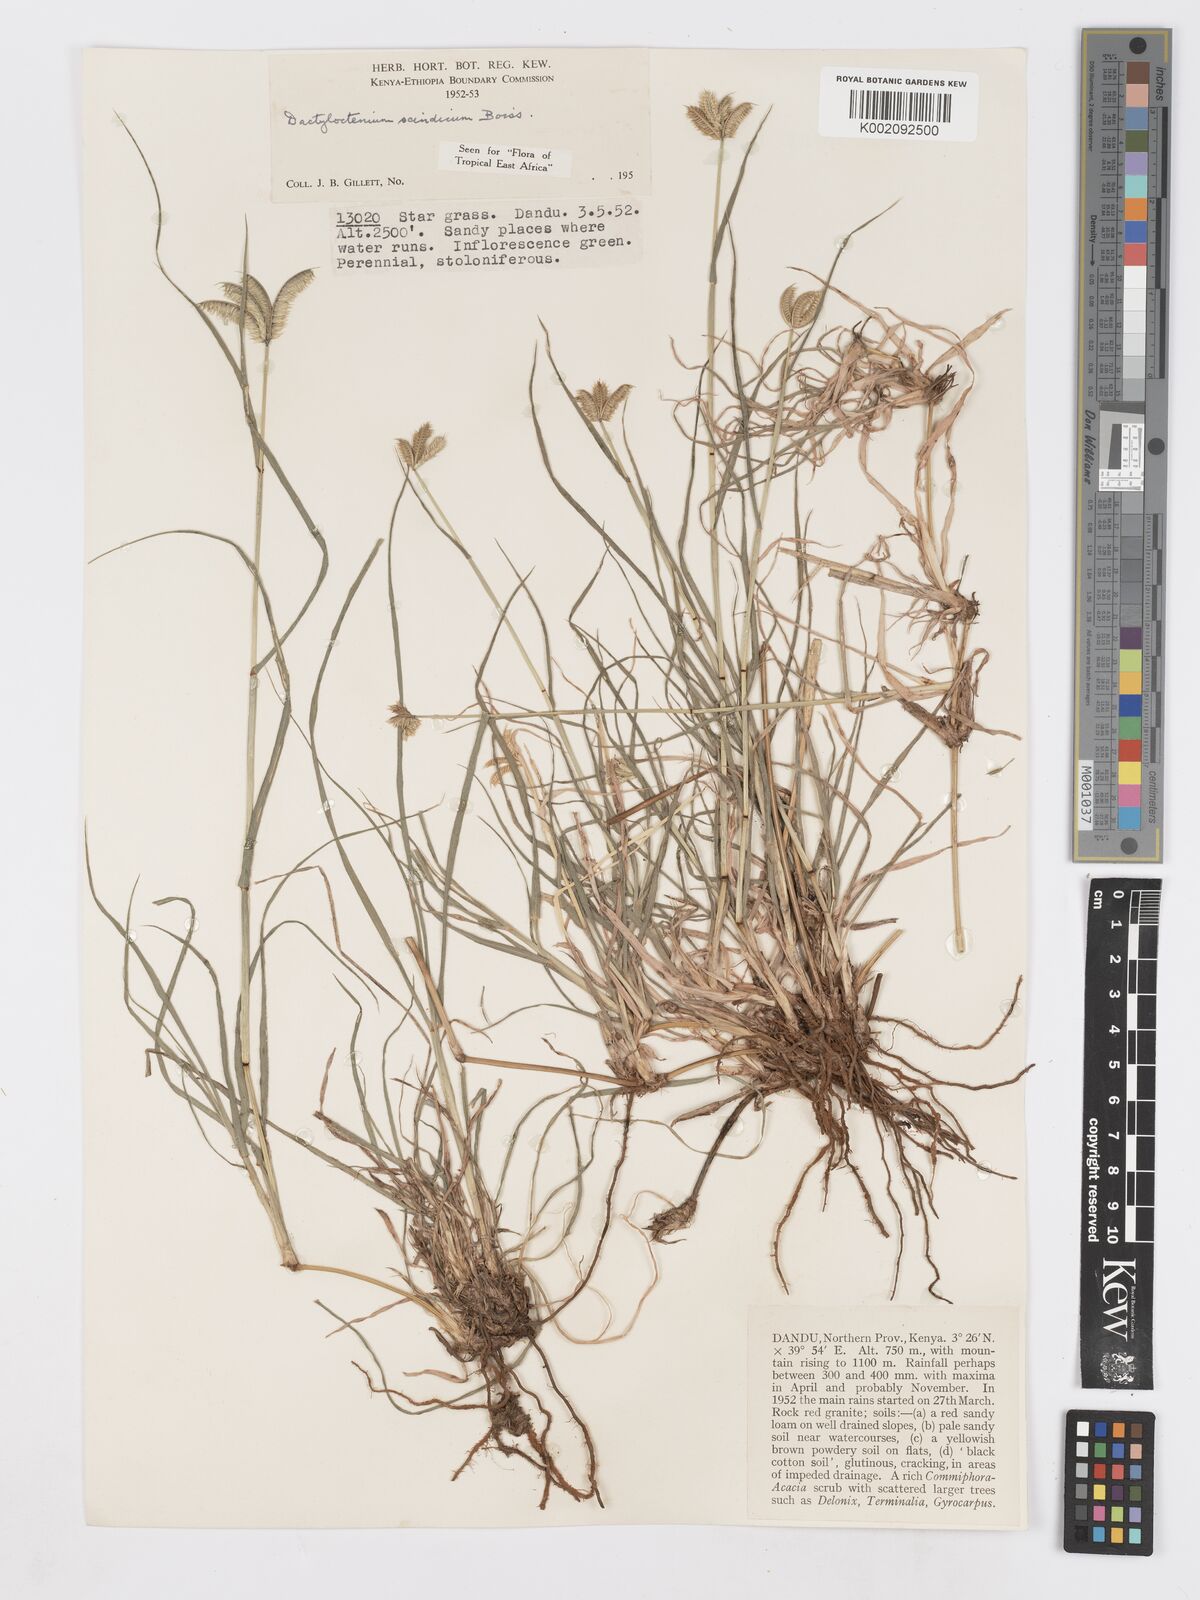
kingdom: Plantae
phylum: Tracheophyta
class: Liliopsida
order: Poales
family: Poaceae
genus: Dactyloctenium
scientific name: Dactyloctenium scindicum
